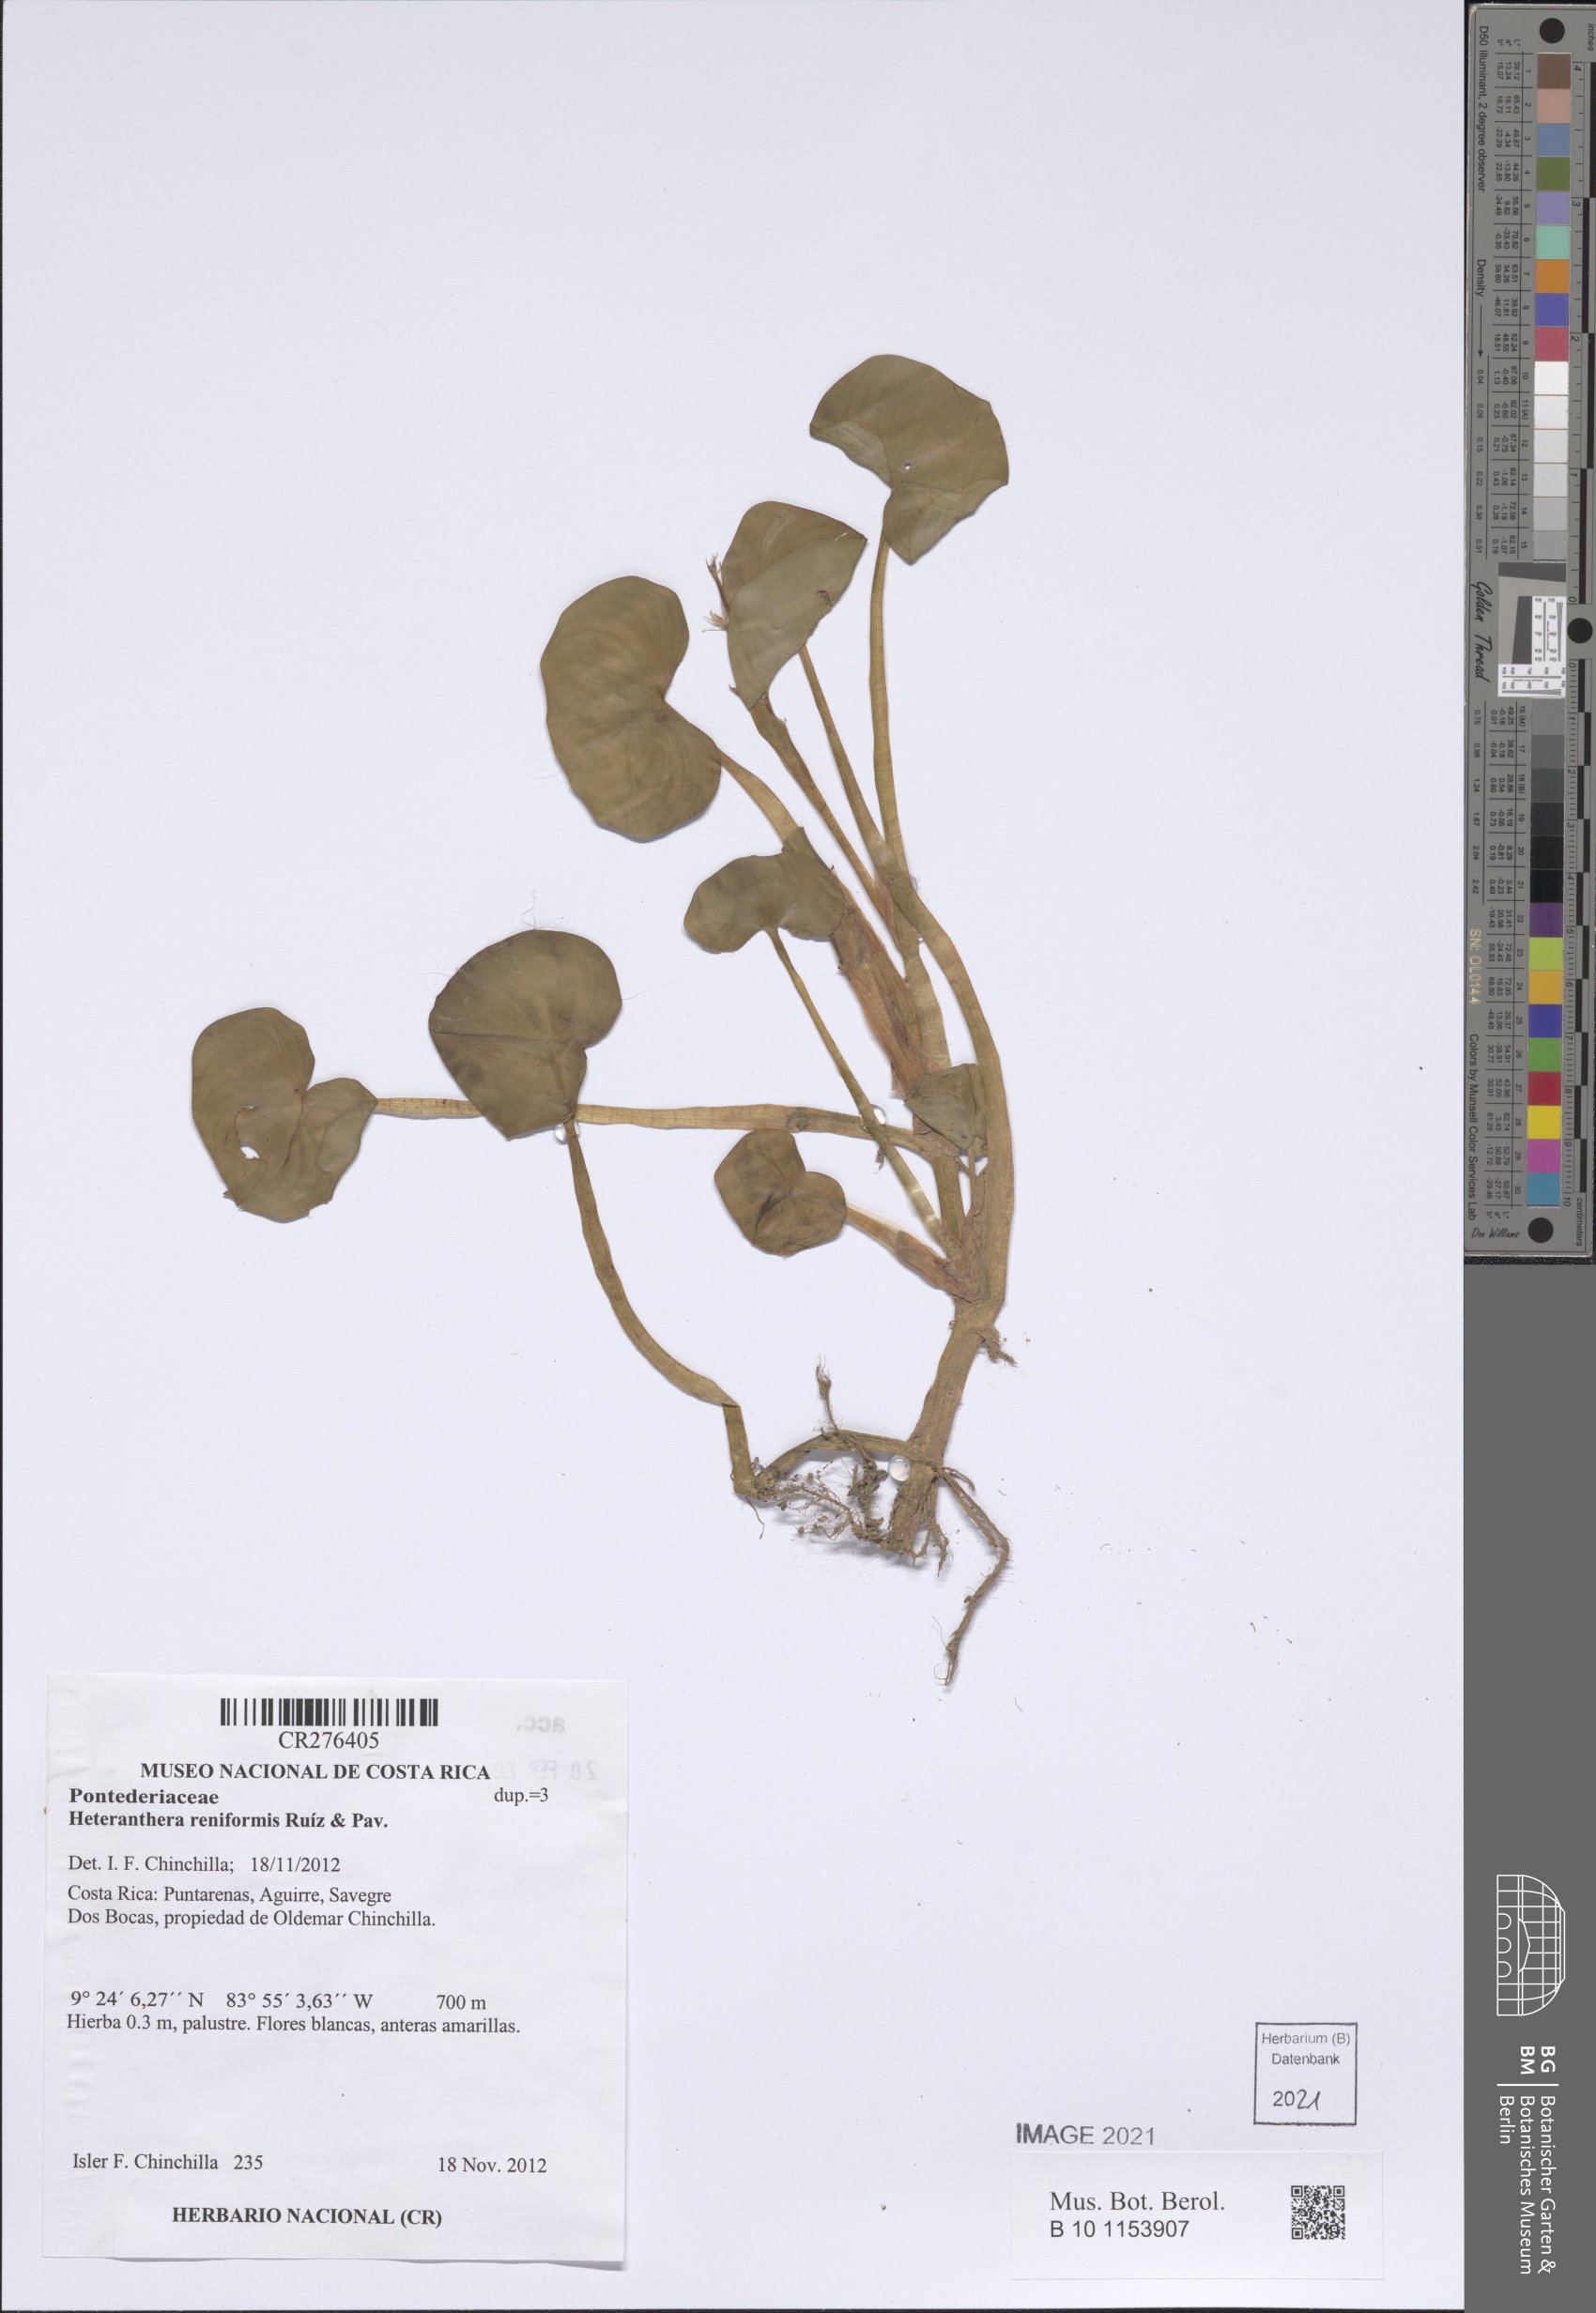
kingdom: Plantae
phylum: Tracheophyta
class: Liliopsida
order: Commelinales
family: Pontederiaceae
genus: Heteranthera
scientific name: Heteranthera reniformis
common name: Kidneyleaf mudplantain
